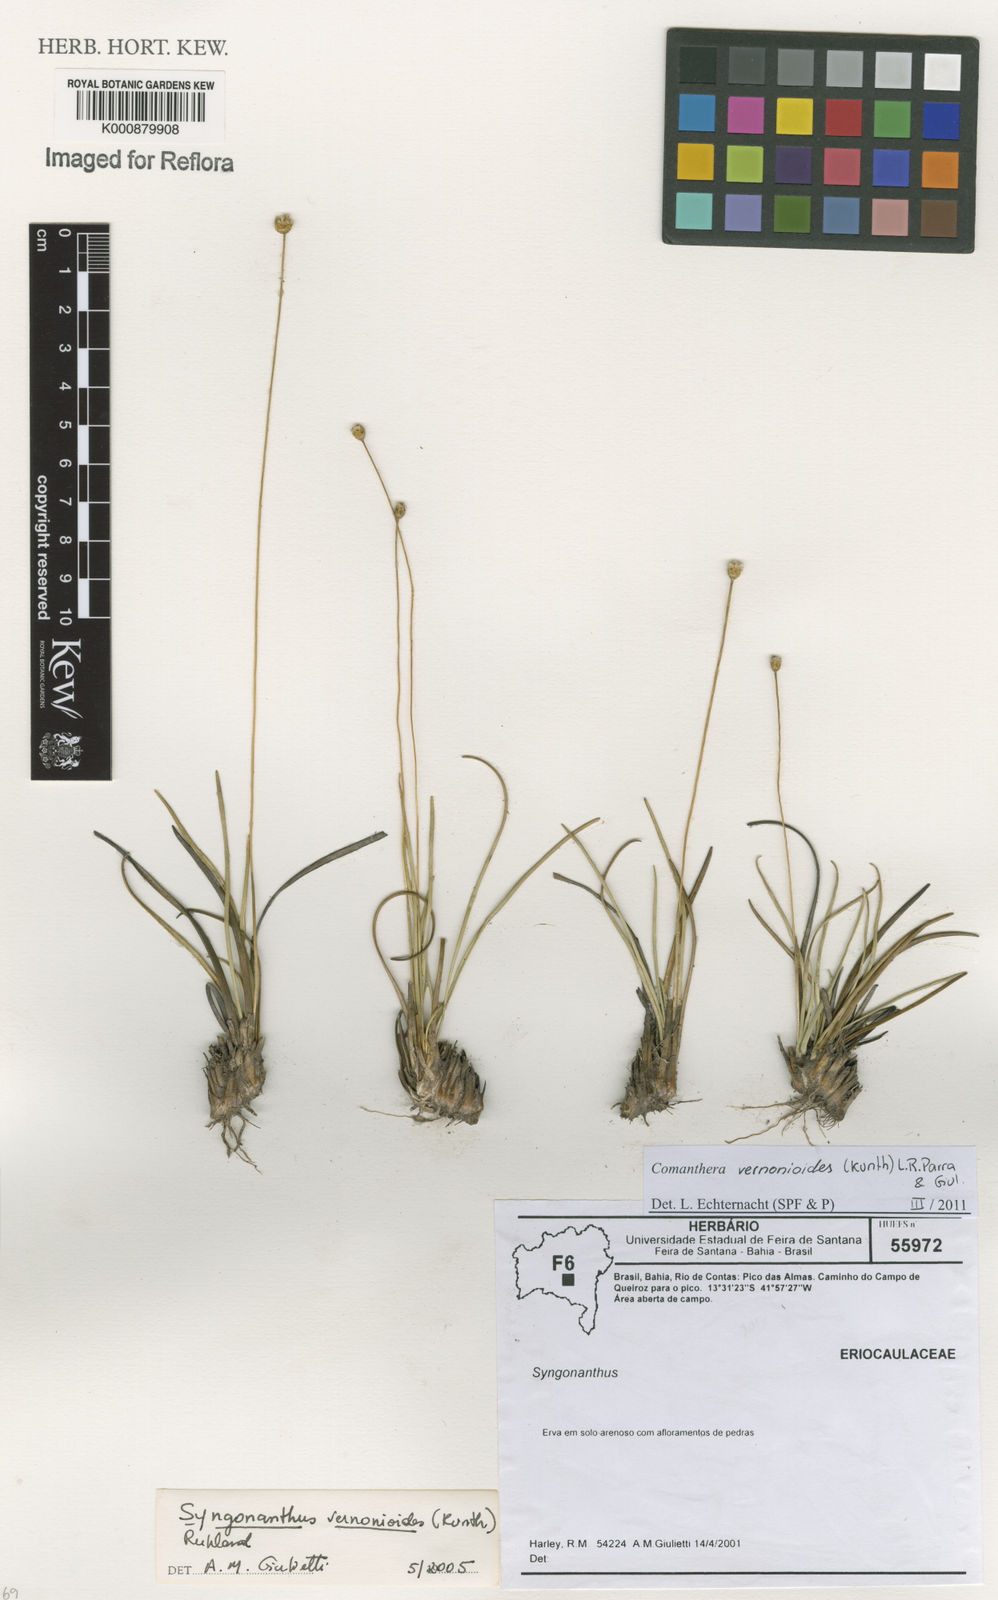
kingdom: Plantae
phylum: Tracheophyta
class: Liliopsida
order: Poales
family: Eriocaulaceae
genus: Comanthera
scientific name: Comanthera centauroides
